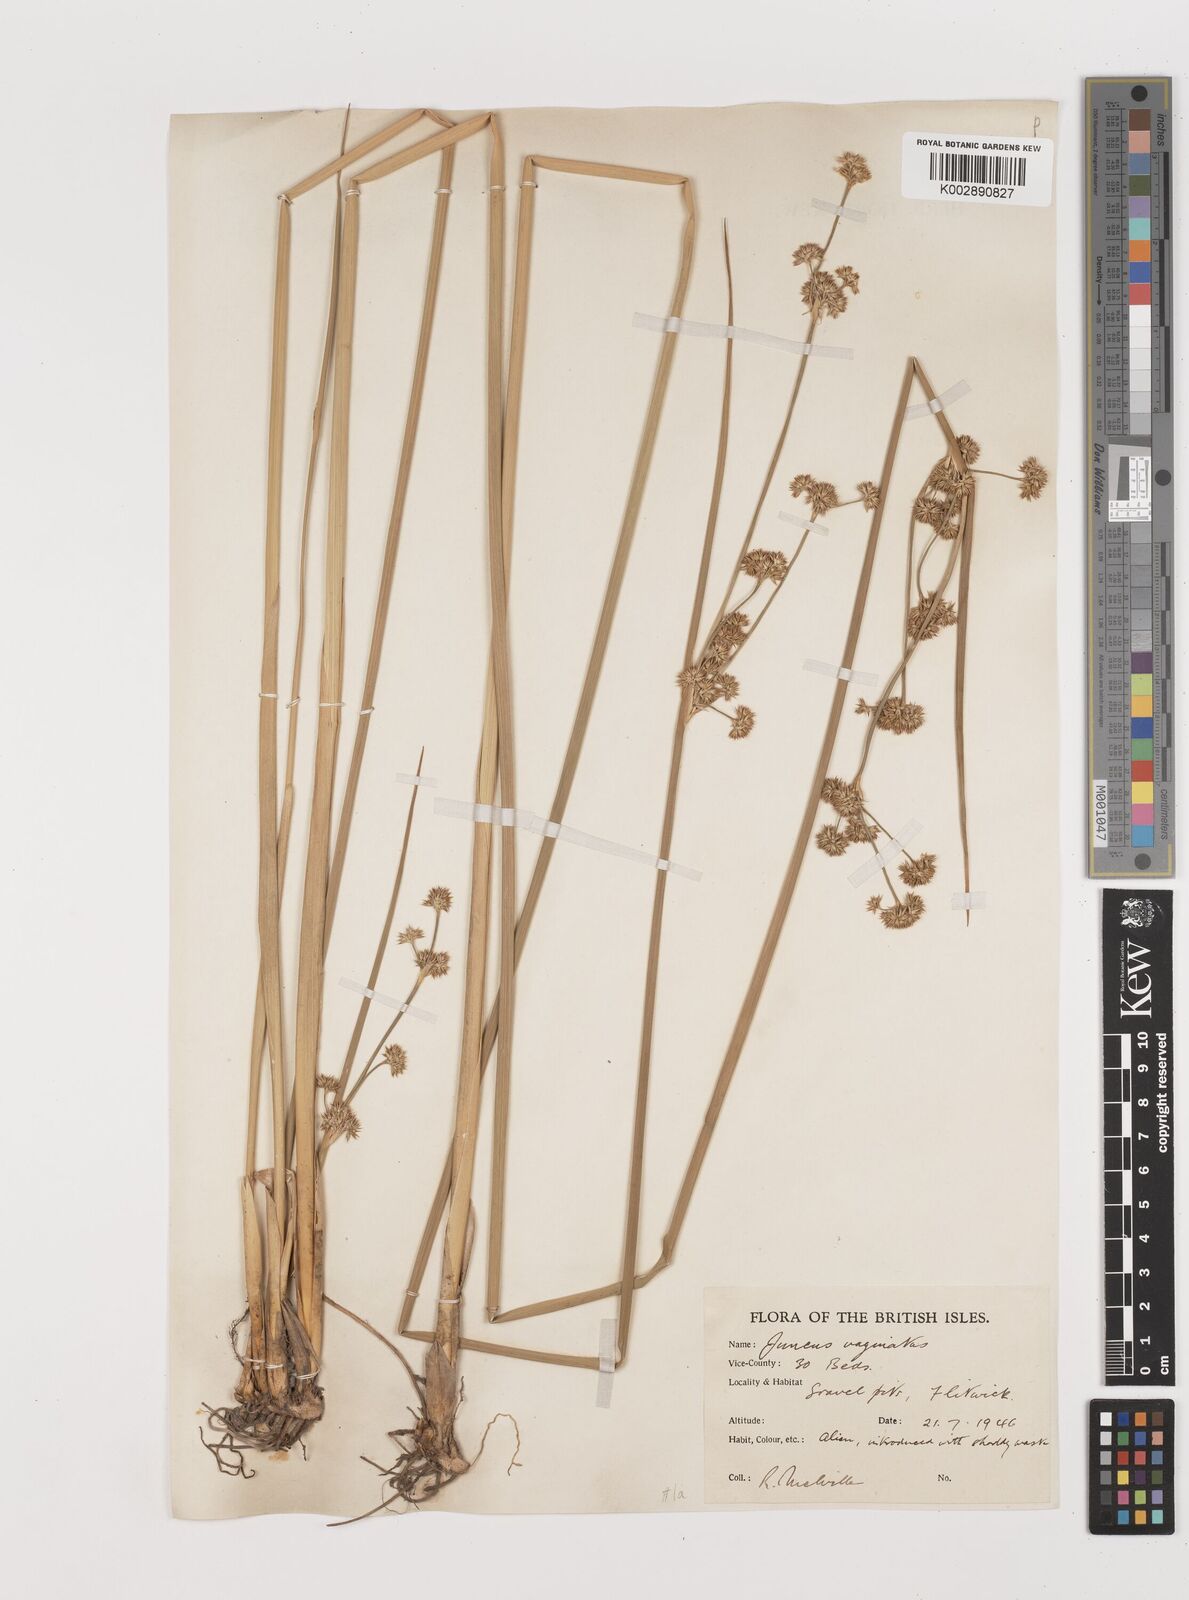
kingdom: Plantae
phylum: Tracheophyta
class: Liliopsida
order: Poales
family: Juncaceae
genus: Juncus
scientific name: Juncus vaginatus
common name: Clustered rush
